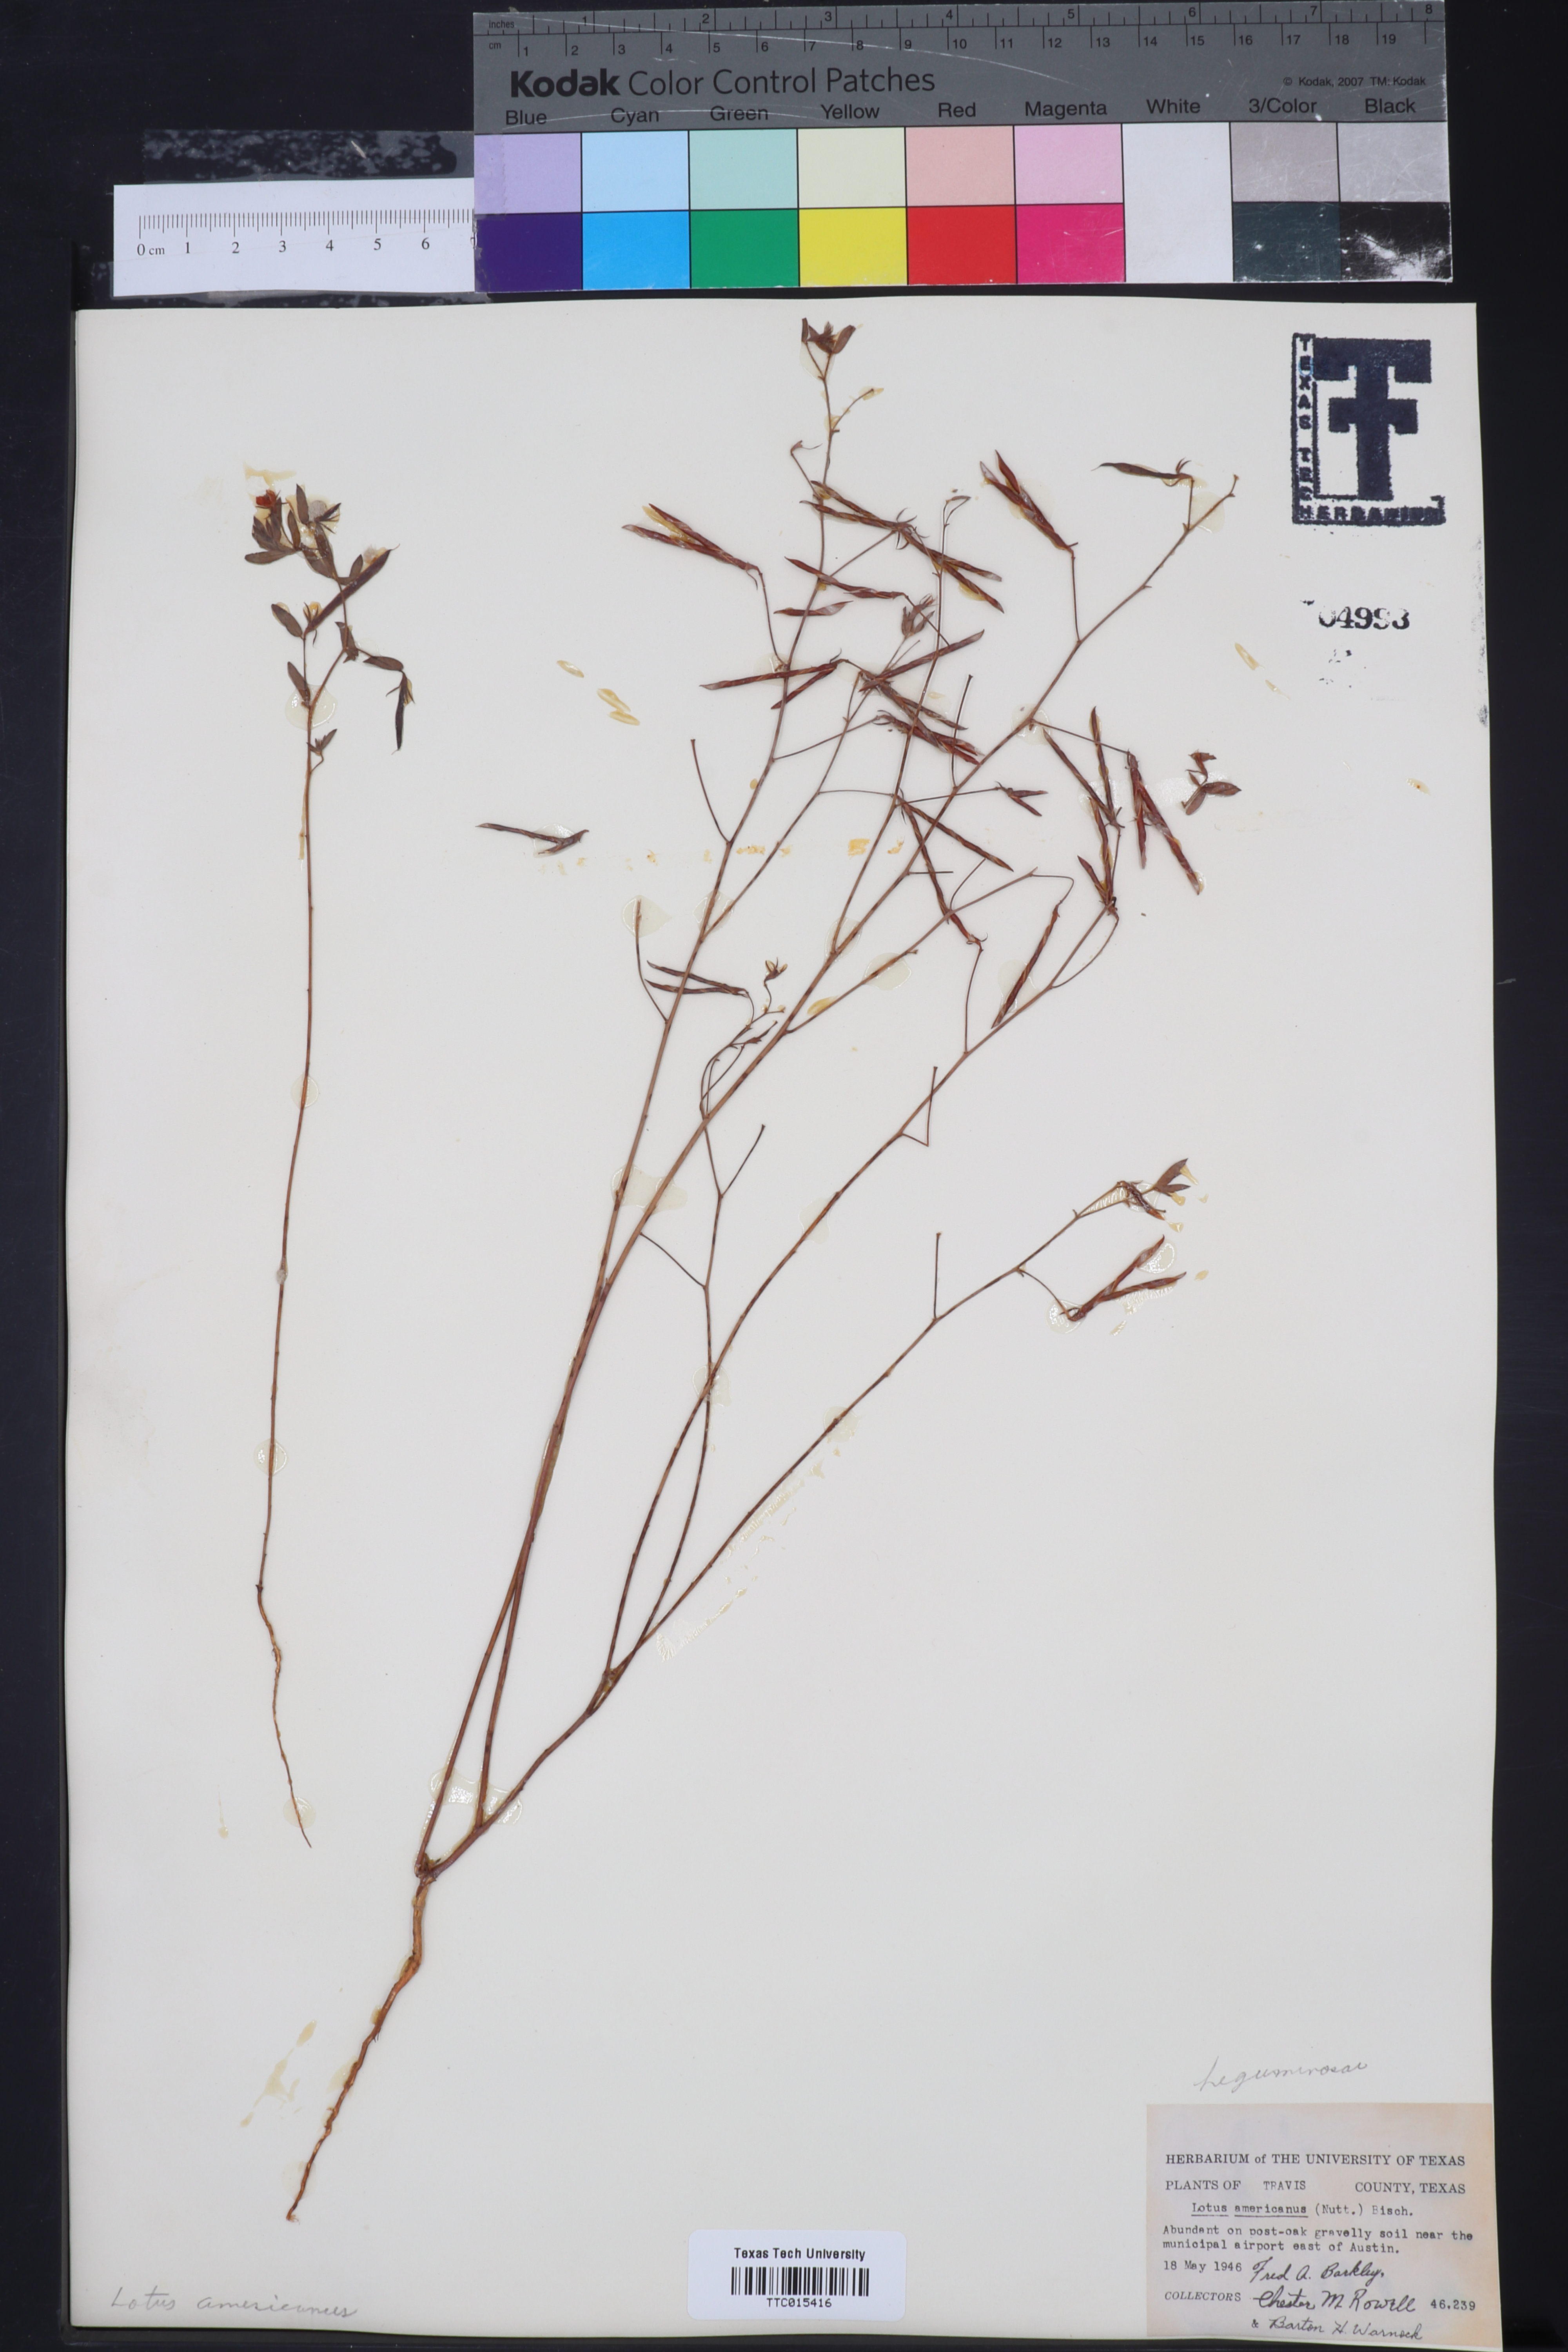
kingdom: Plantae
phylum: Tracheophyta
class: Magnoliopsida
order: Fabales
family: Fabaceae
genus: Acmispon
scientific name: Acmispon americanus
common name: American bird's-foot trefoil
